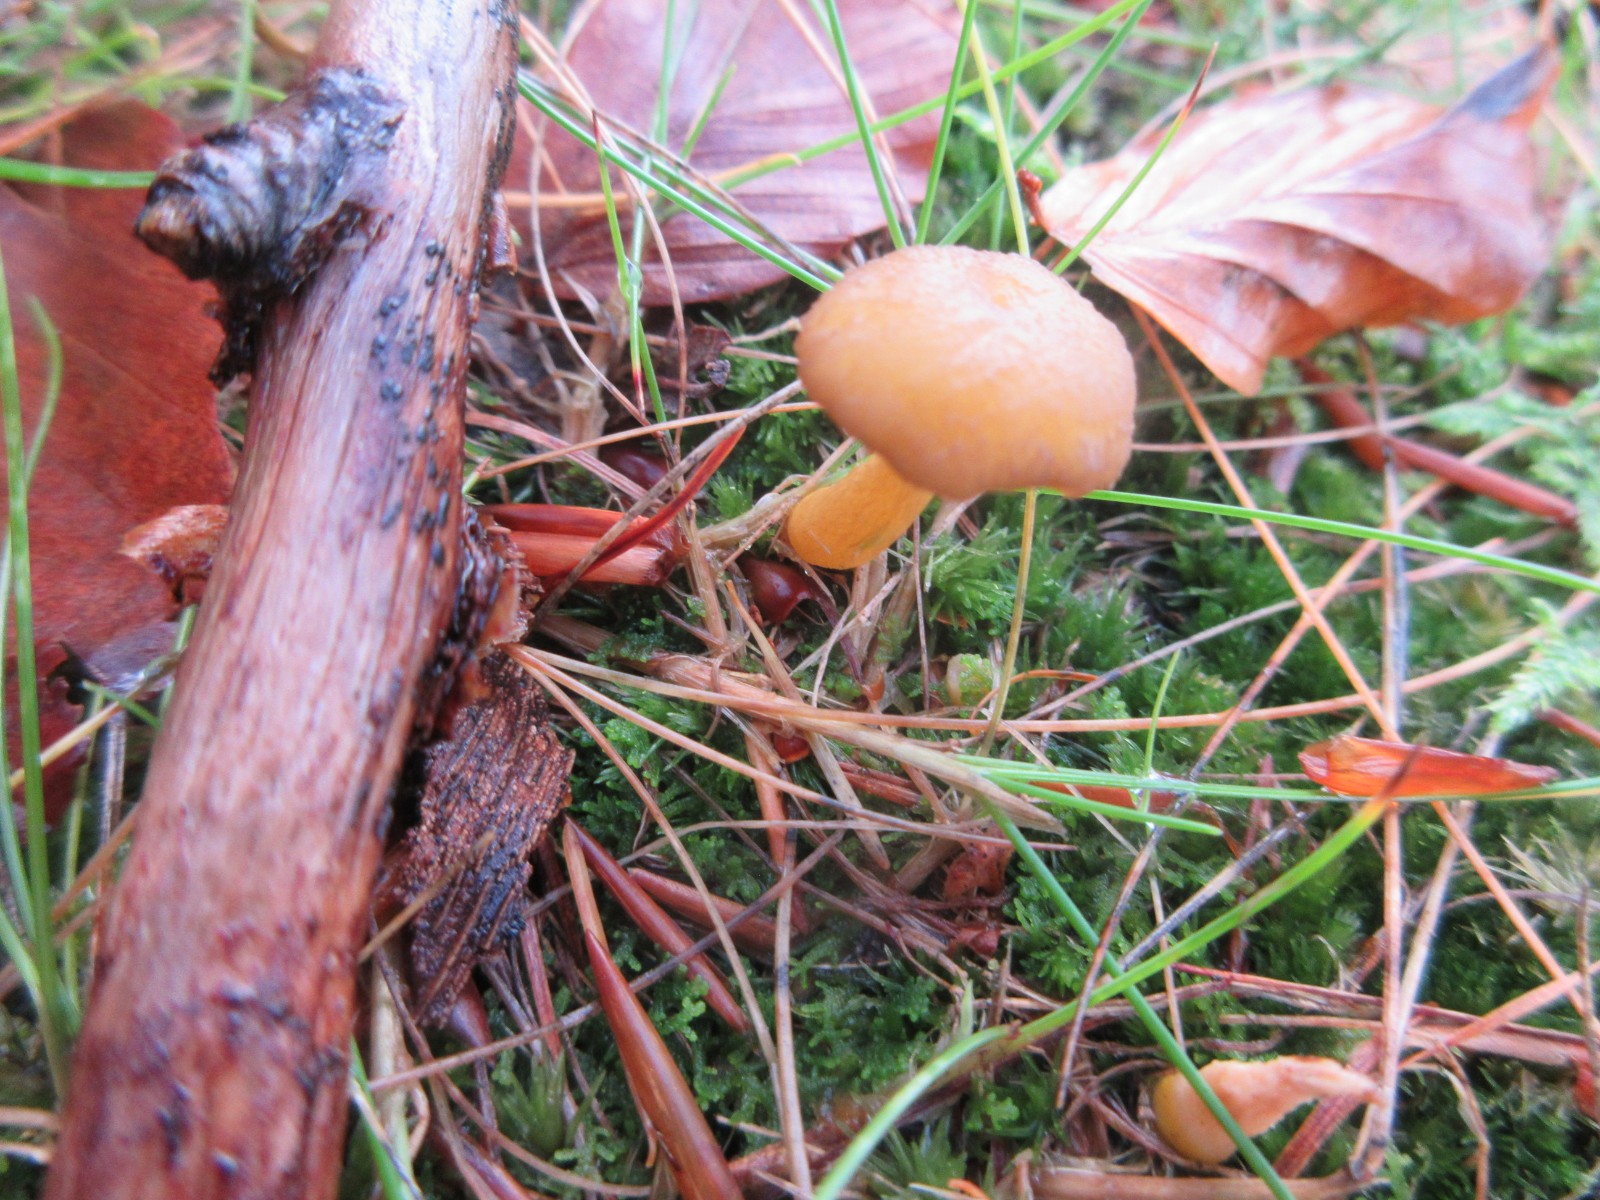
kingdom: Fungi
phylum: Basidiomycota
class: Agaricomycetes
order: Cantharellales
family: Hydnaceae
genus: Craterellus
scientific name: Craterellus tubaeformis
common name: tragt-kantarel
